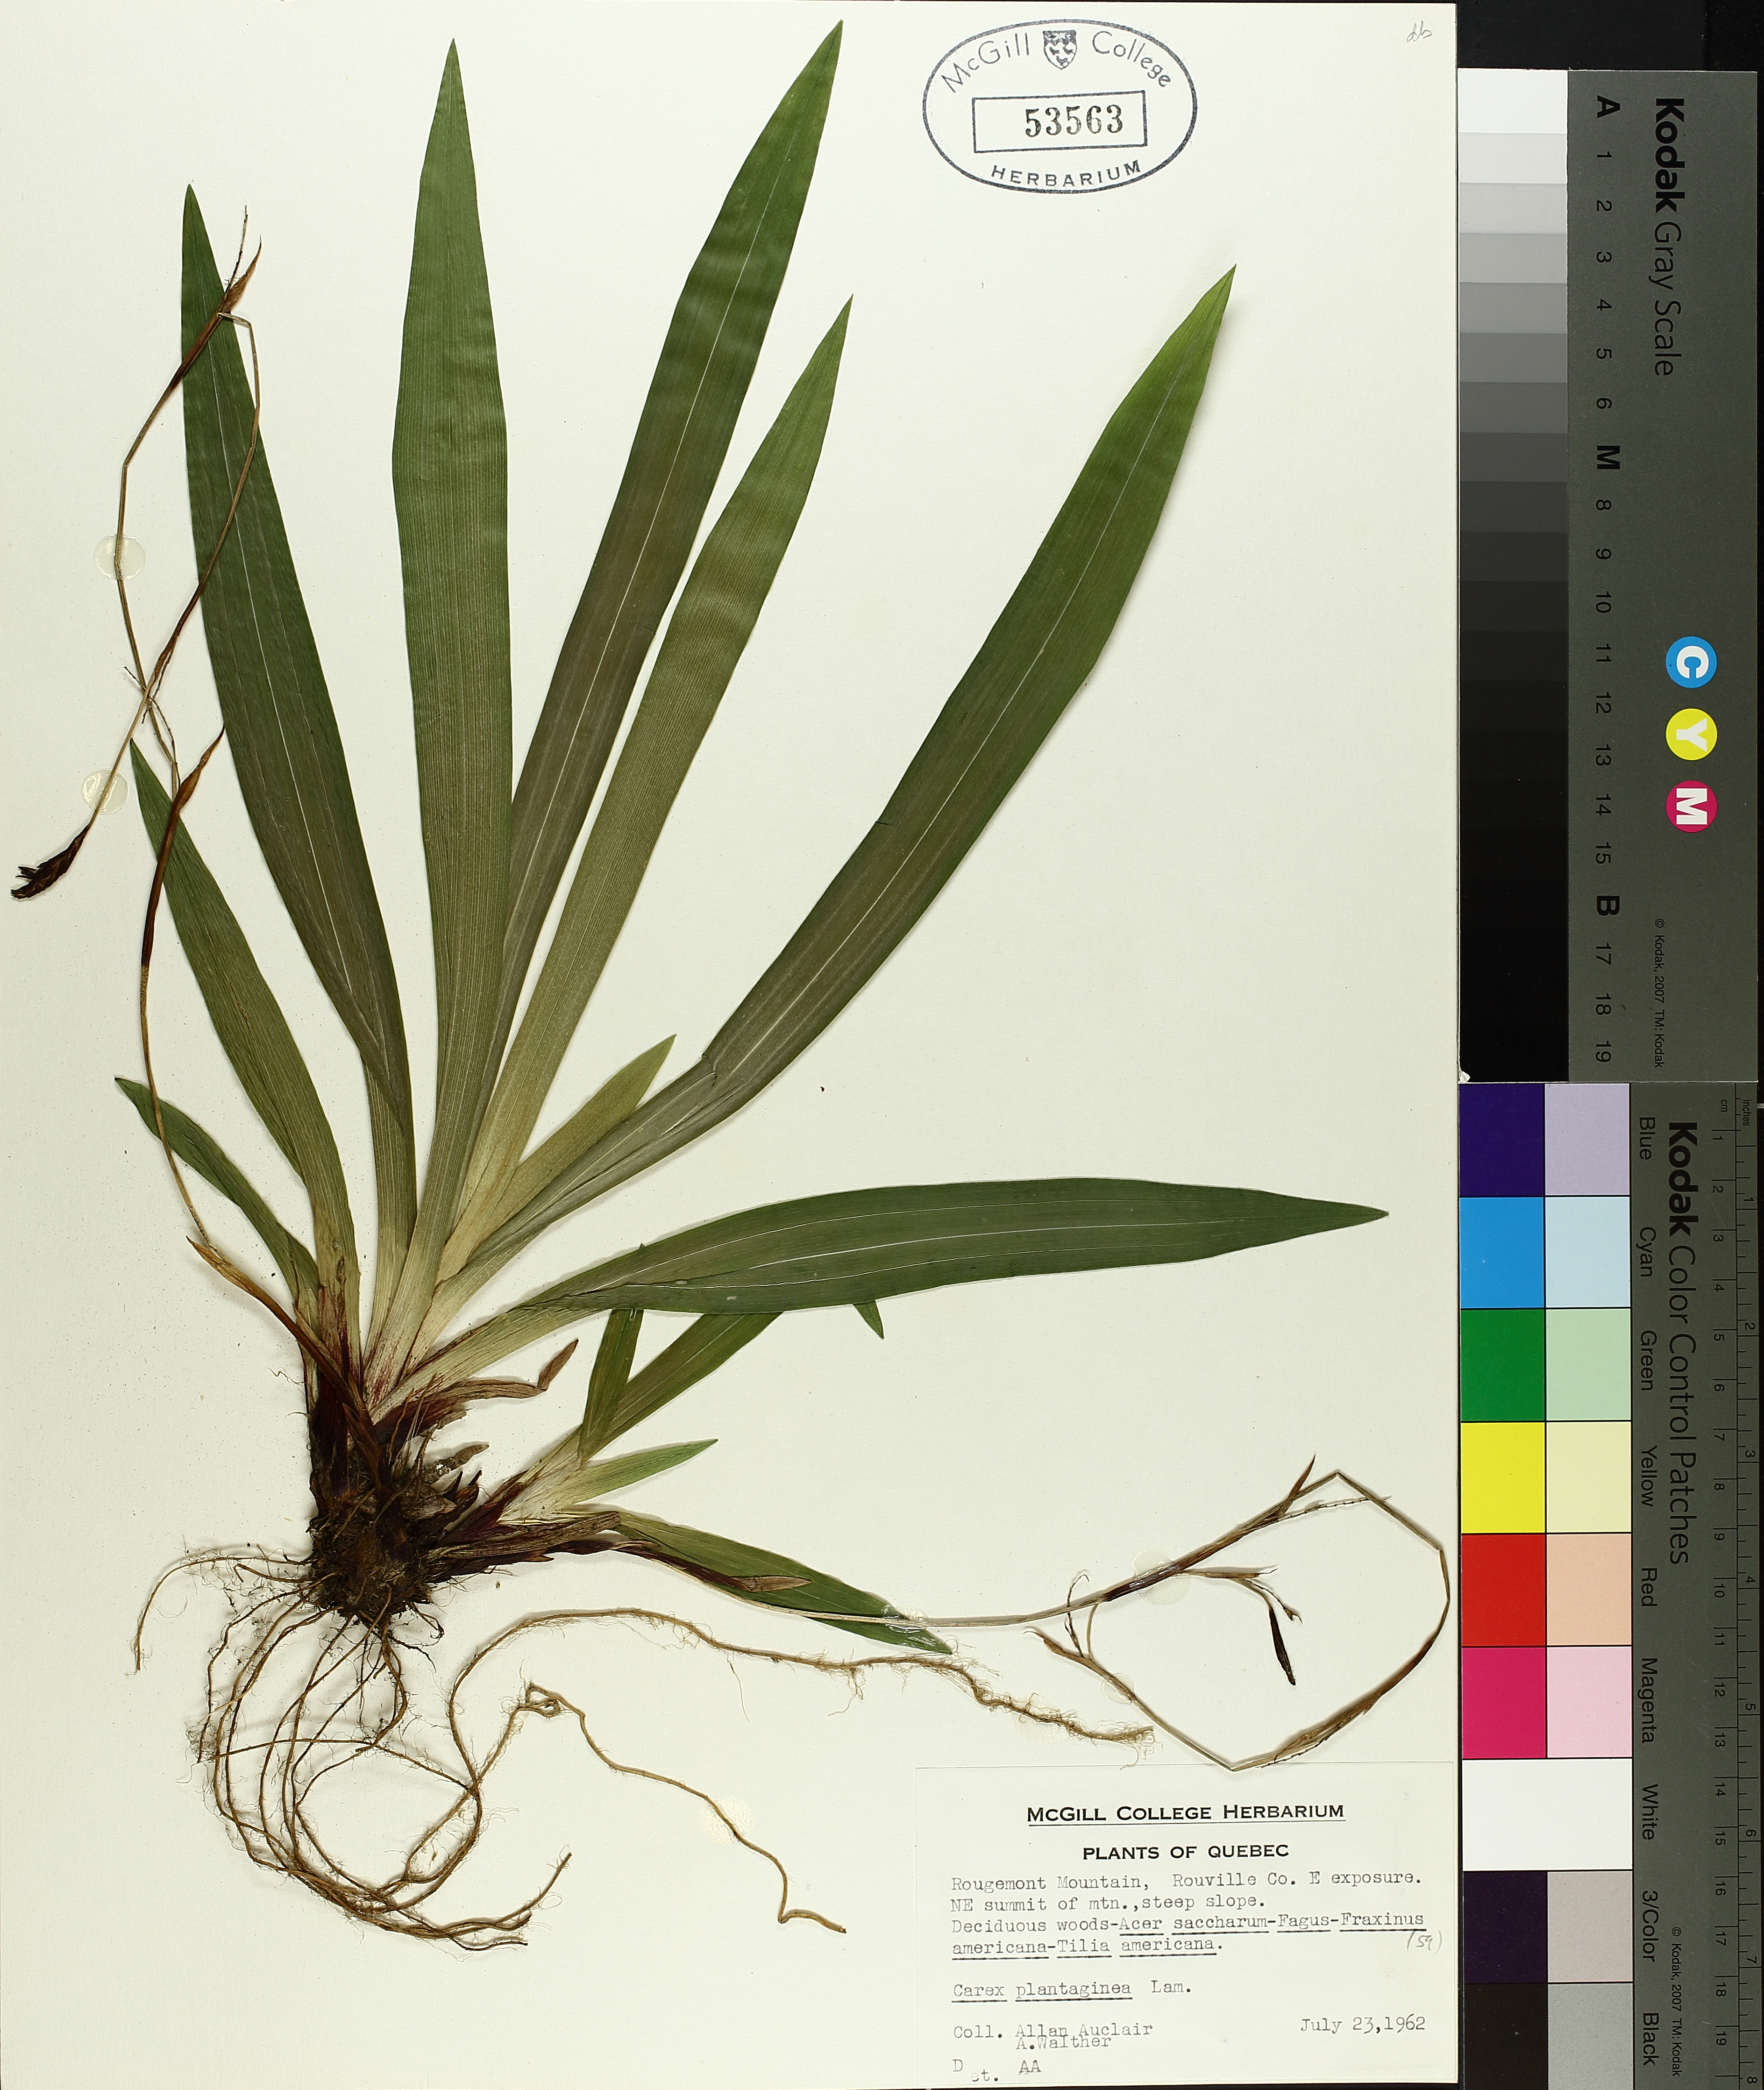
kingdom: Plantae
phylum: Tracheophyta
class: Liliopsida
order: Poales
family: Cyperaceae
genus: Carex
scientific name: Carex plantaginea
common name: Plantain-leaved sedge
